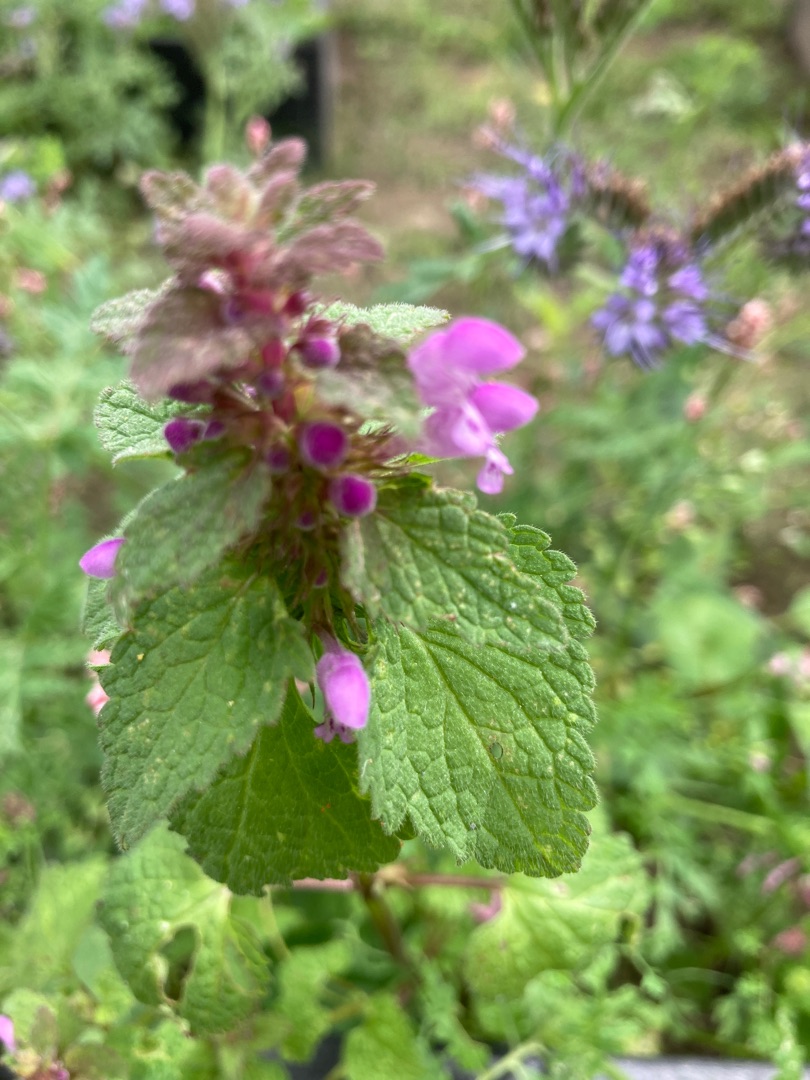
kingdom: Plantae
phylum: Tracheophyta
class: Magnoliopsida
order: Lamiales
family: Lamiaceae
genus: Lamium
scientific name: Lamium purpureum
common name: Rød tvetand
